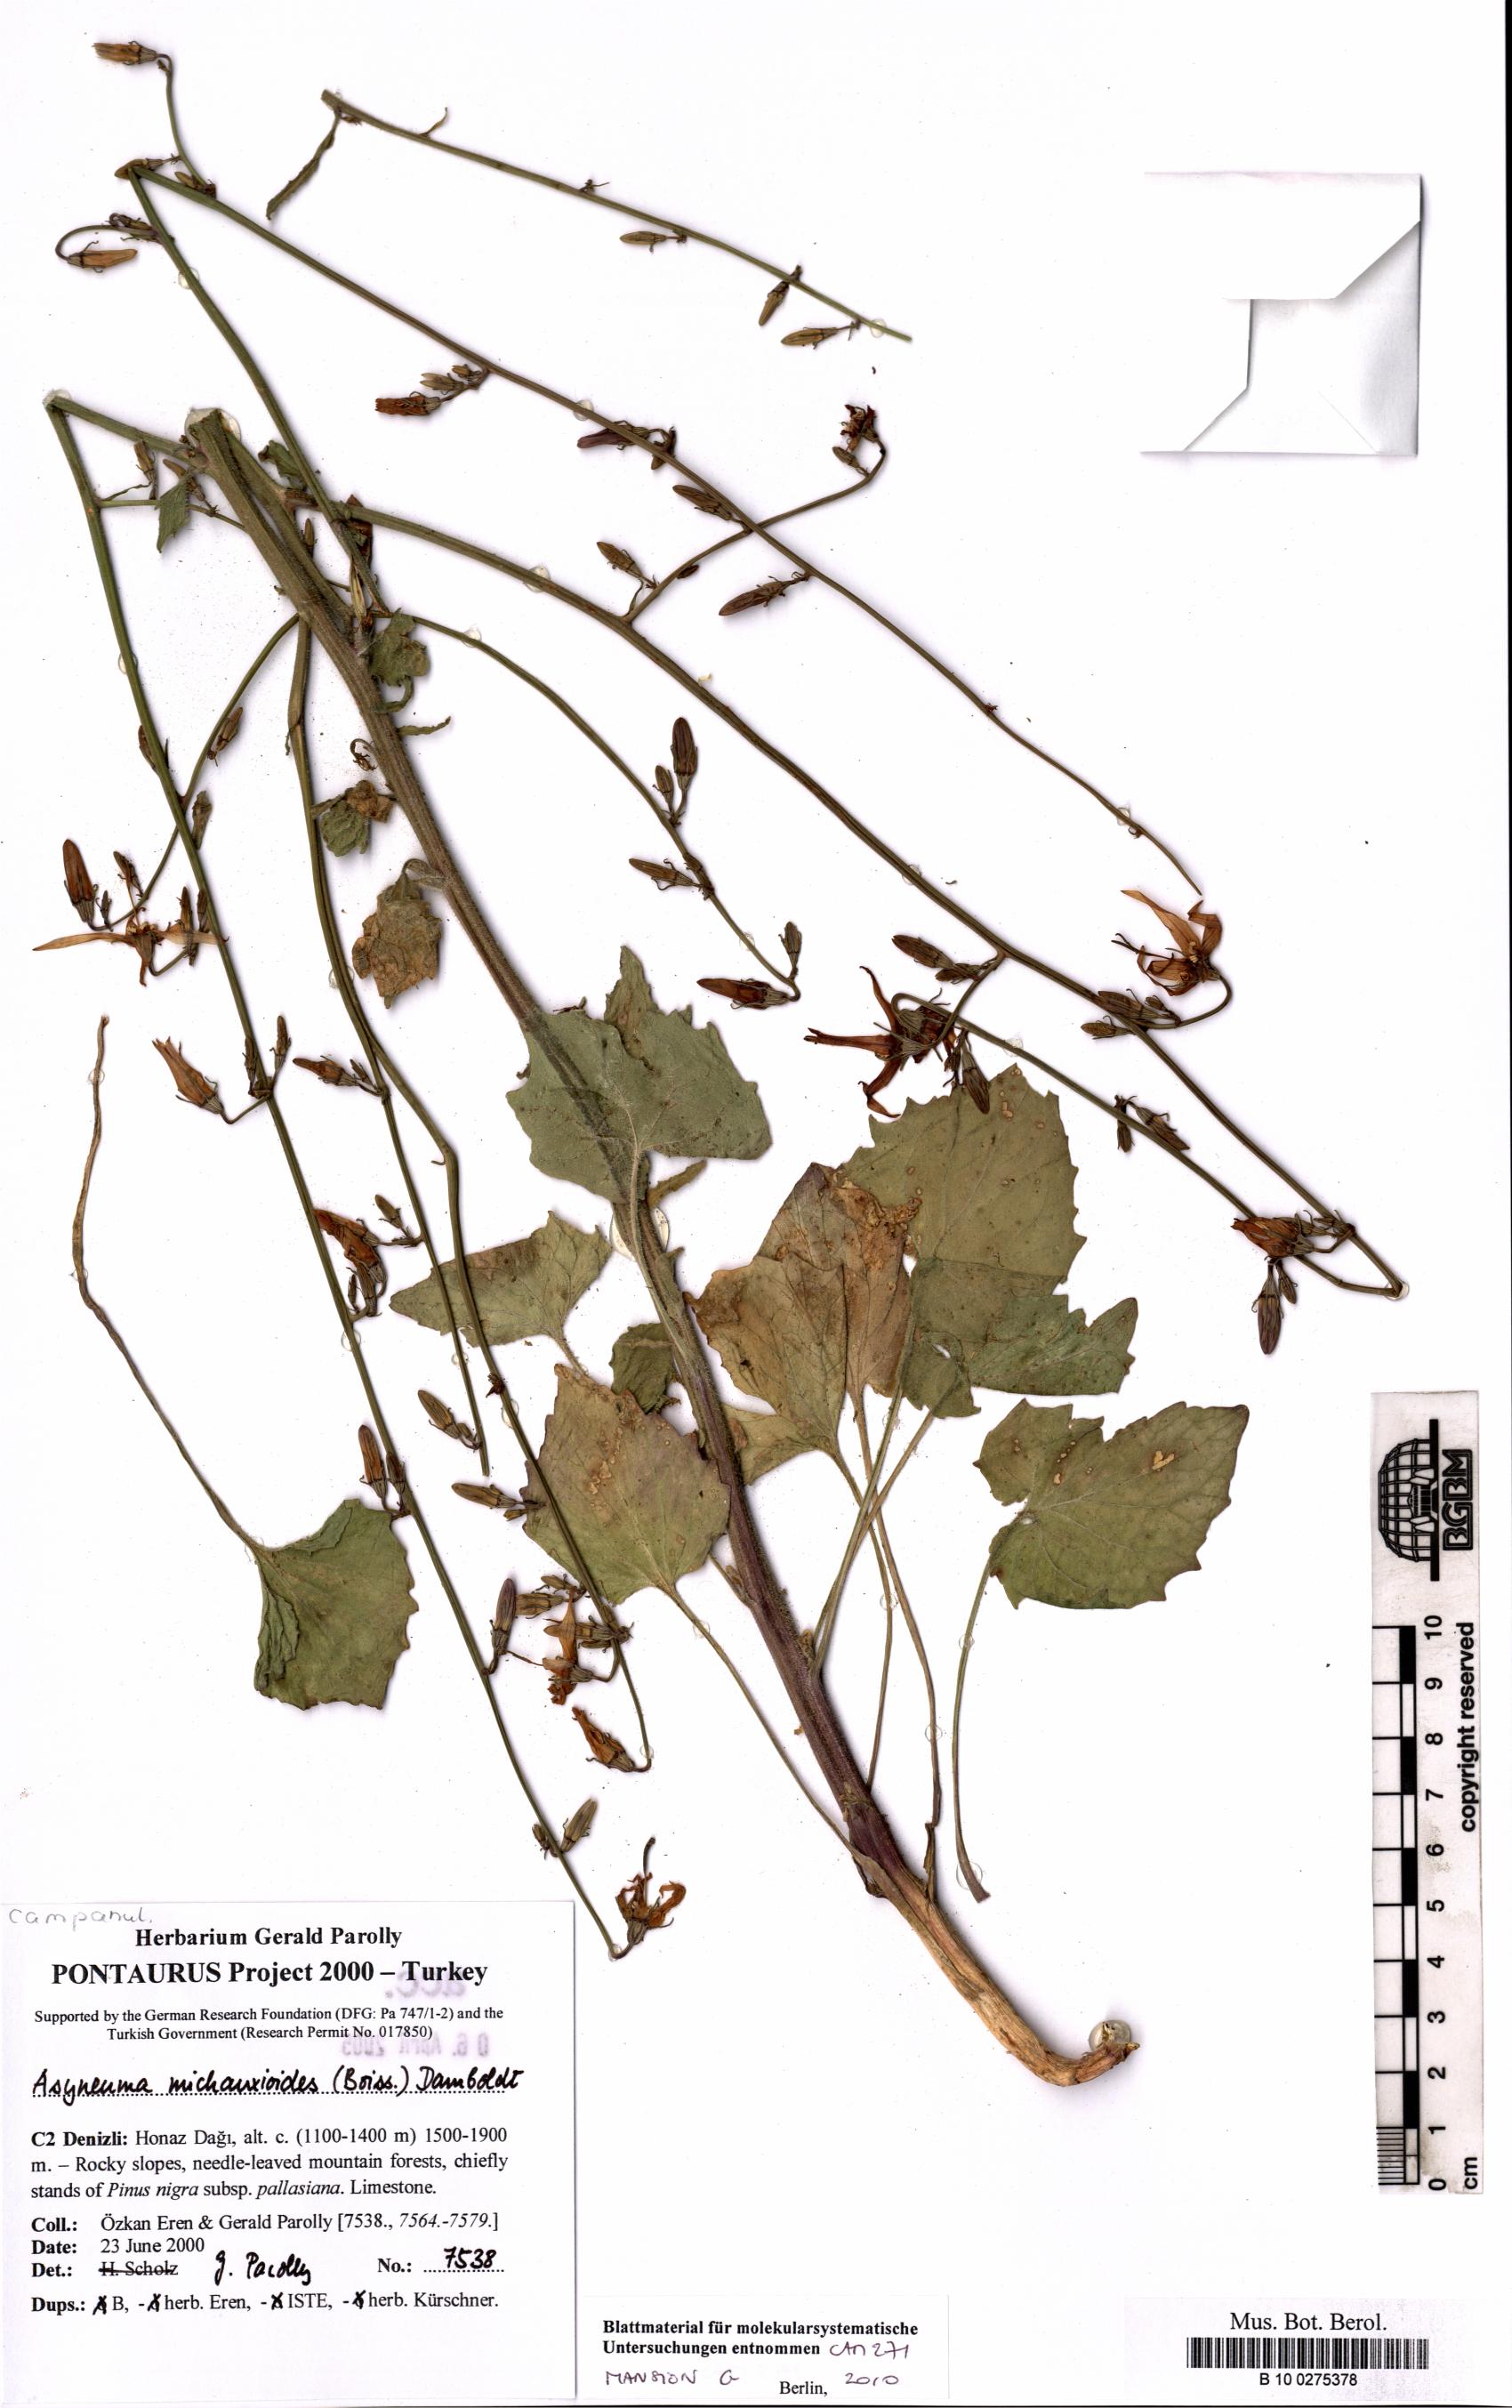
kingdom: Plantae
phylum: Tracheophyta
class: Magnoliopsida
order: Asterales
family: Campanulaceae
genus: Asyneuma
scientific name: Asyneuma michauxioides
